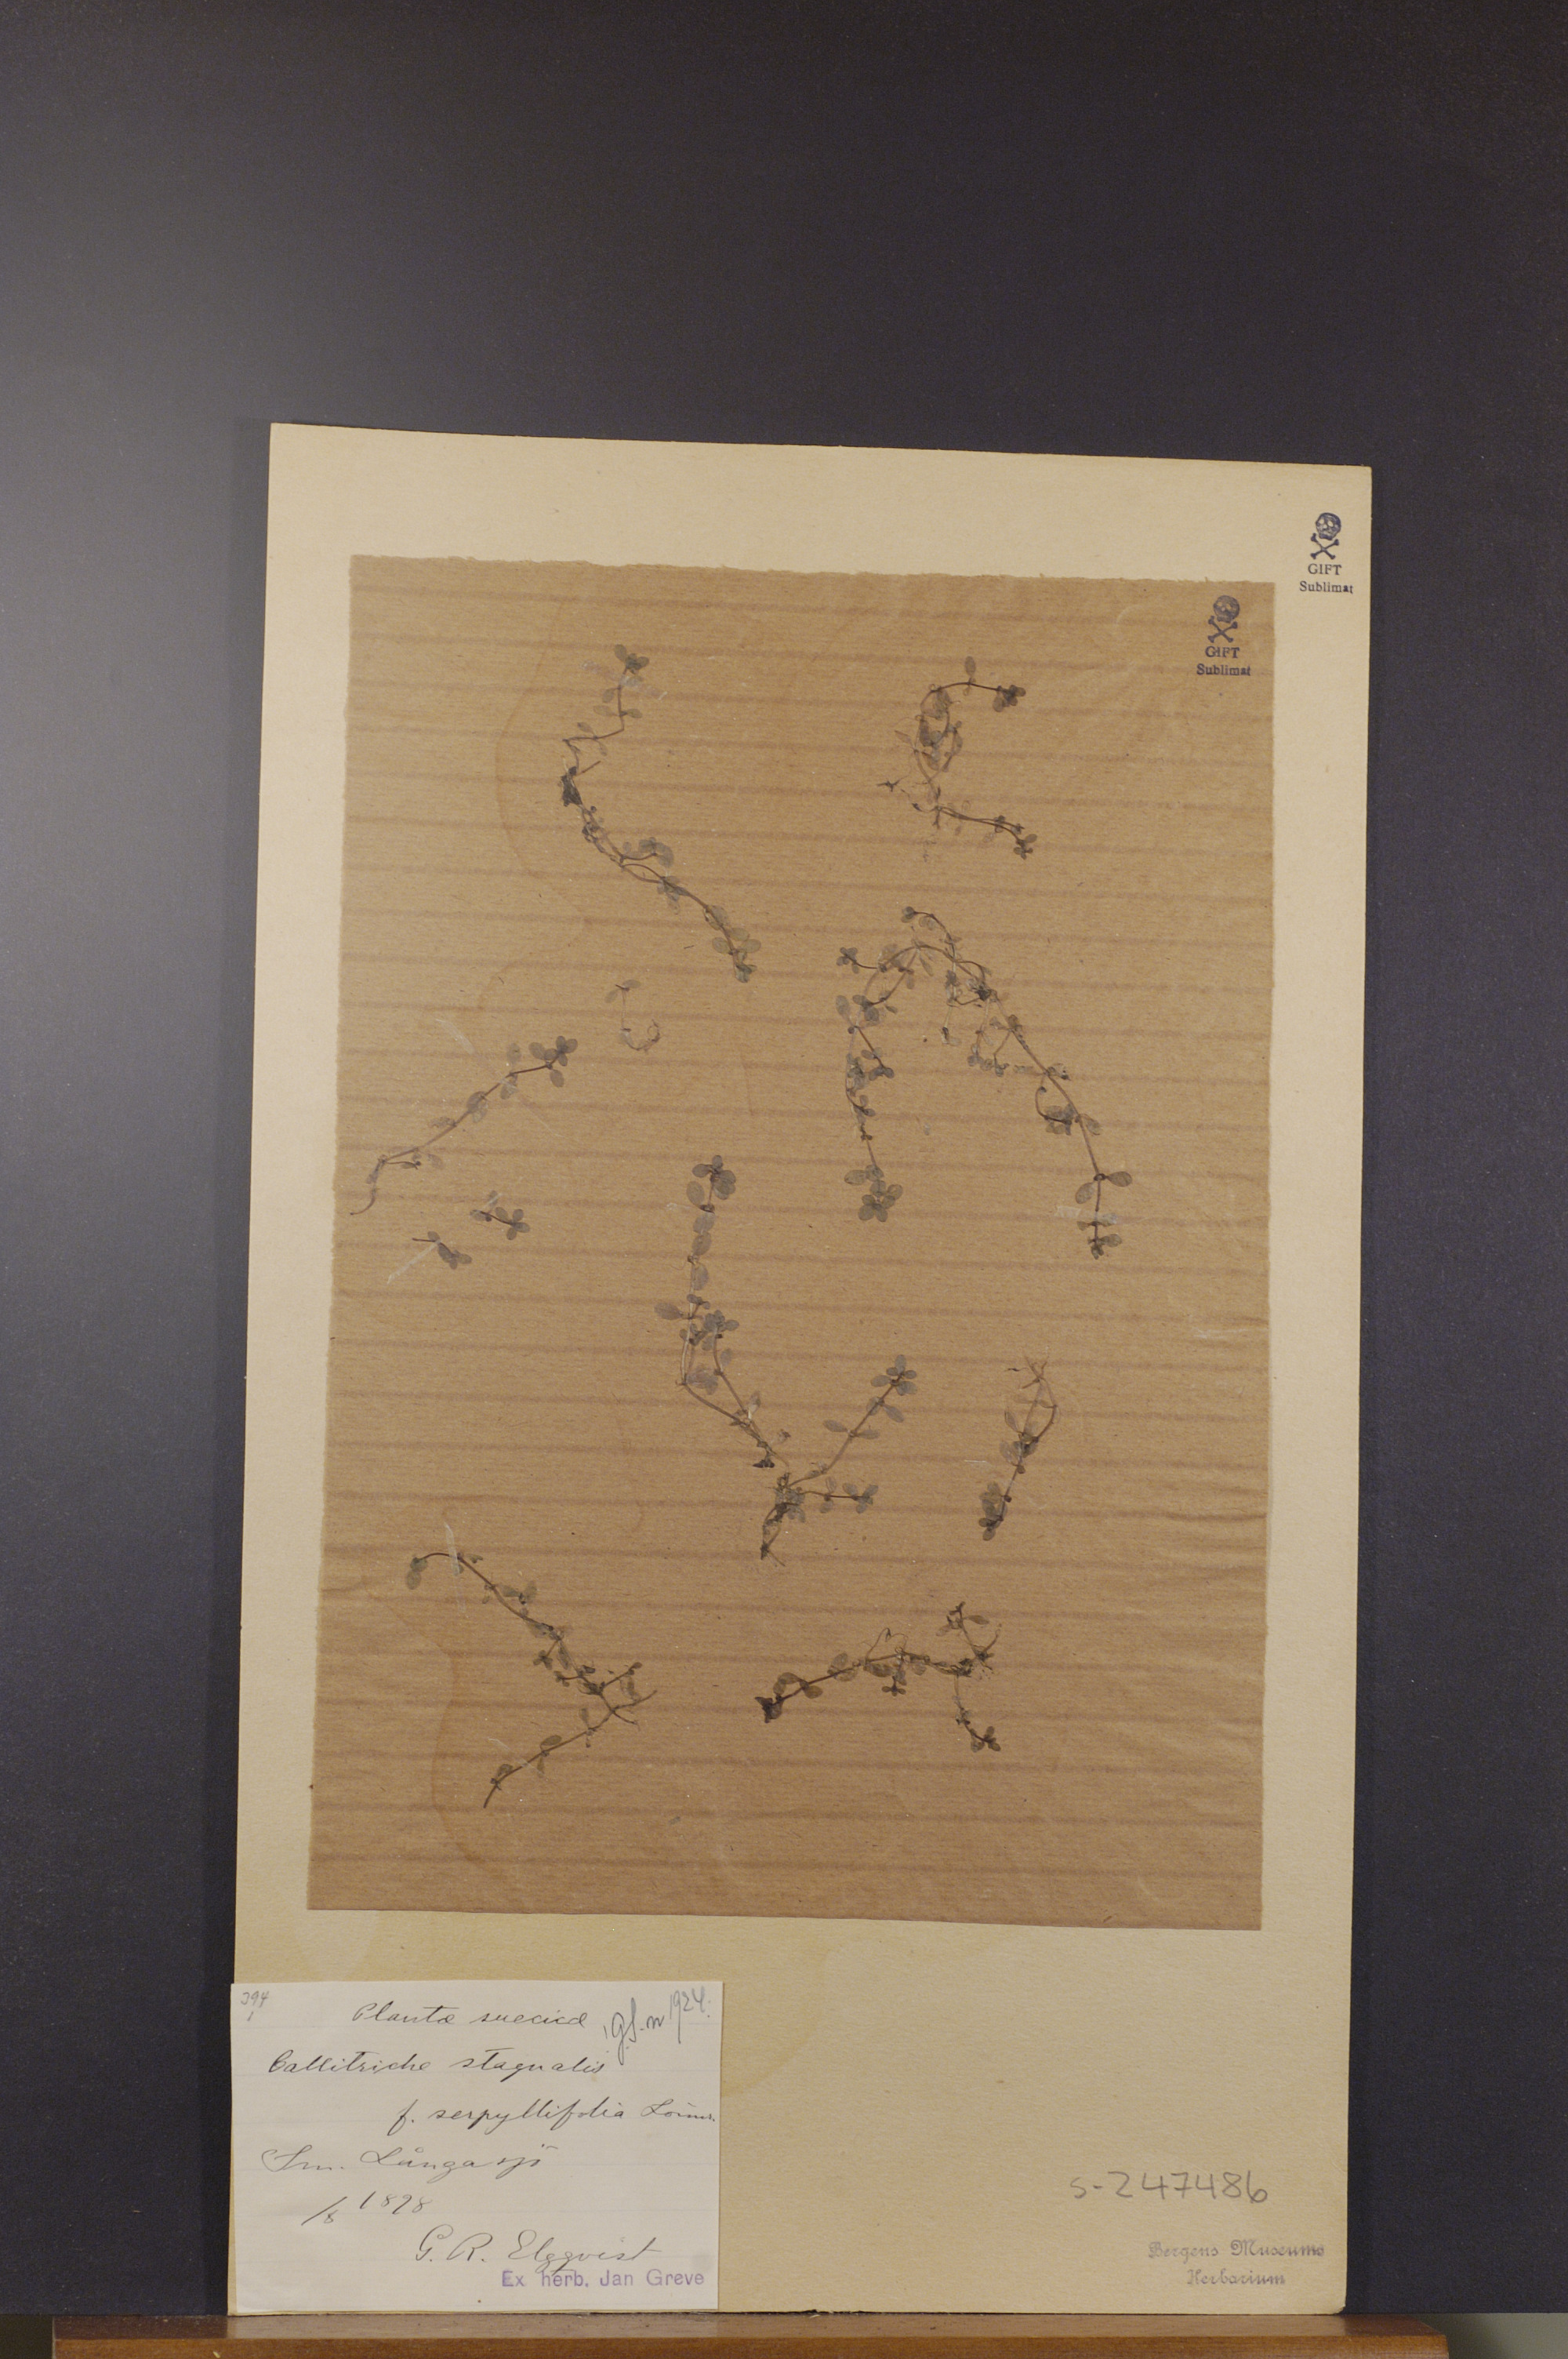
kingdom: Plantae
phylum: Tracheophyta
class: Magnoliopsida
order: Lamiales
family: Plantaginaceae
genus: Callitriche
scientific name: Callitriche stagnalis
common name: Common water-starwort
